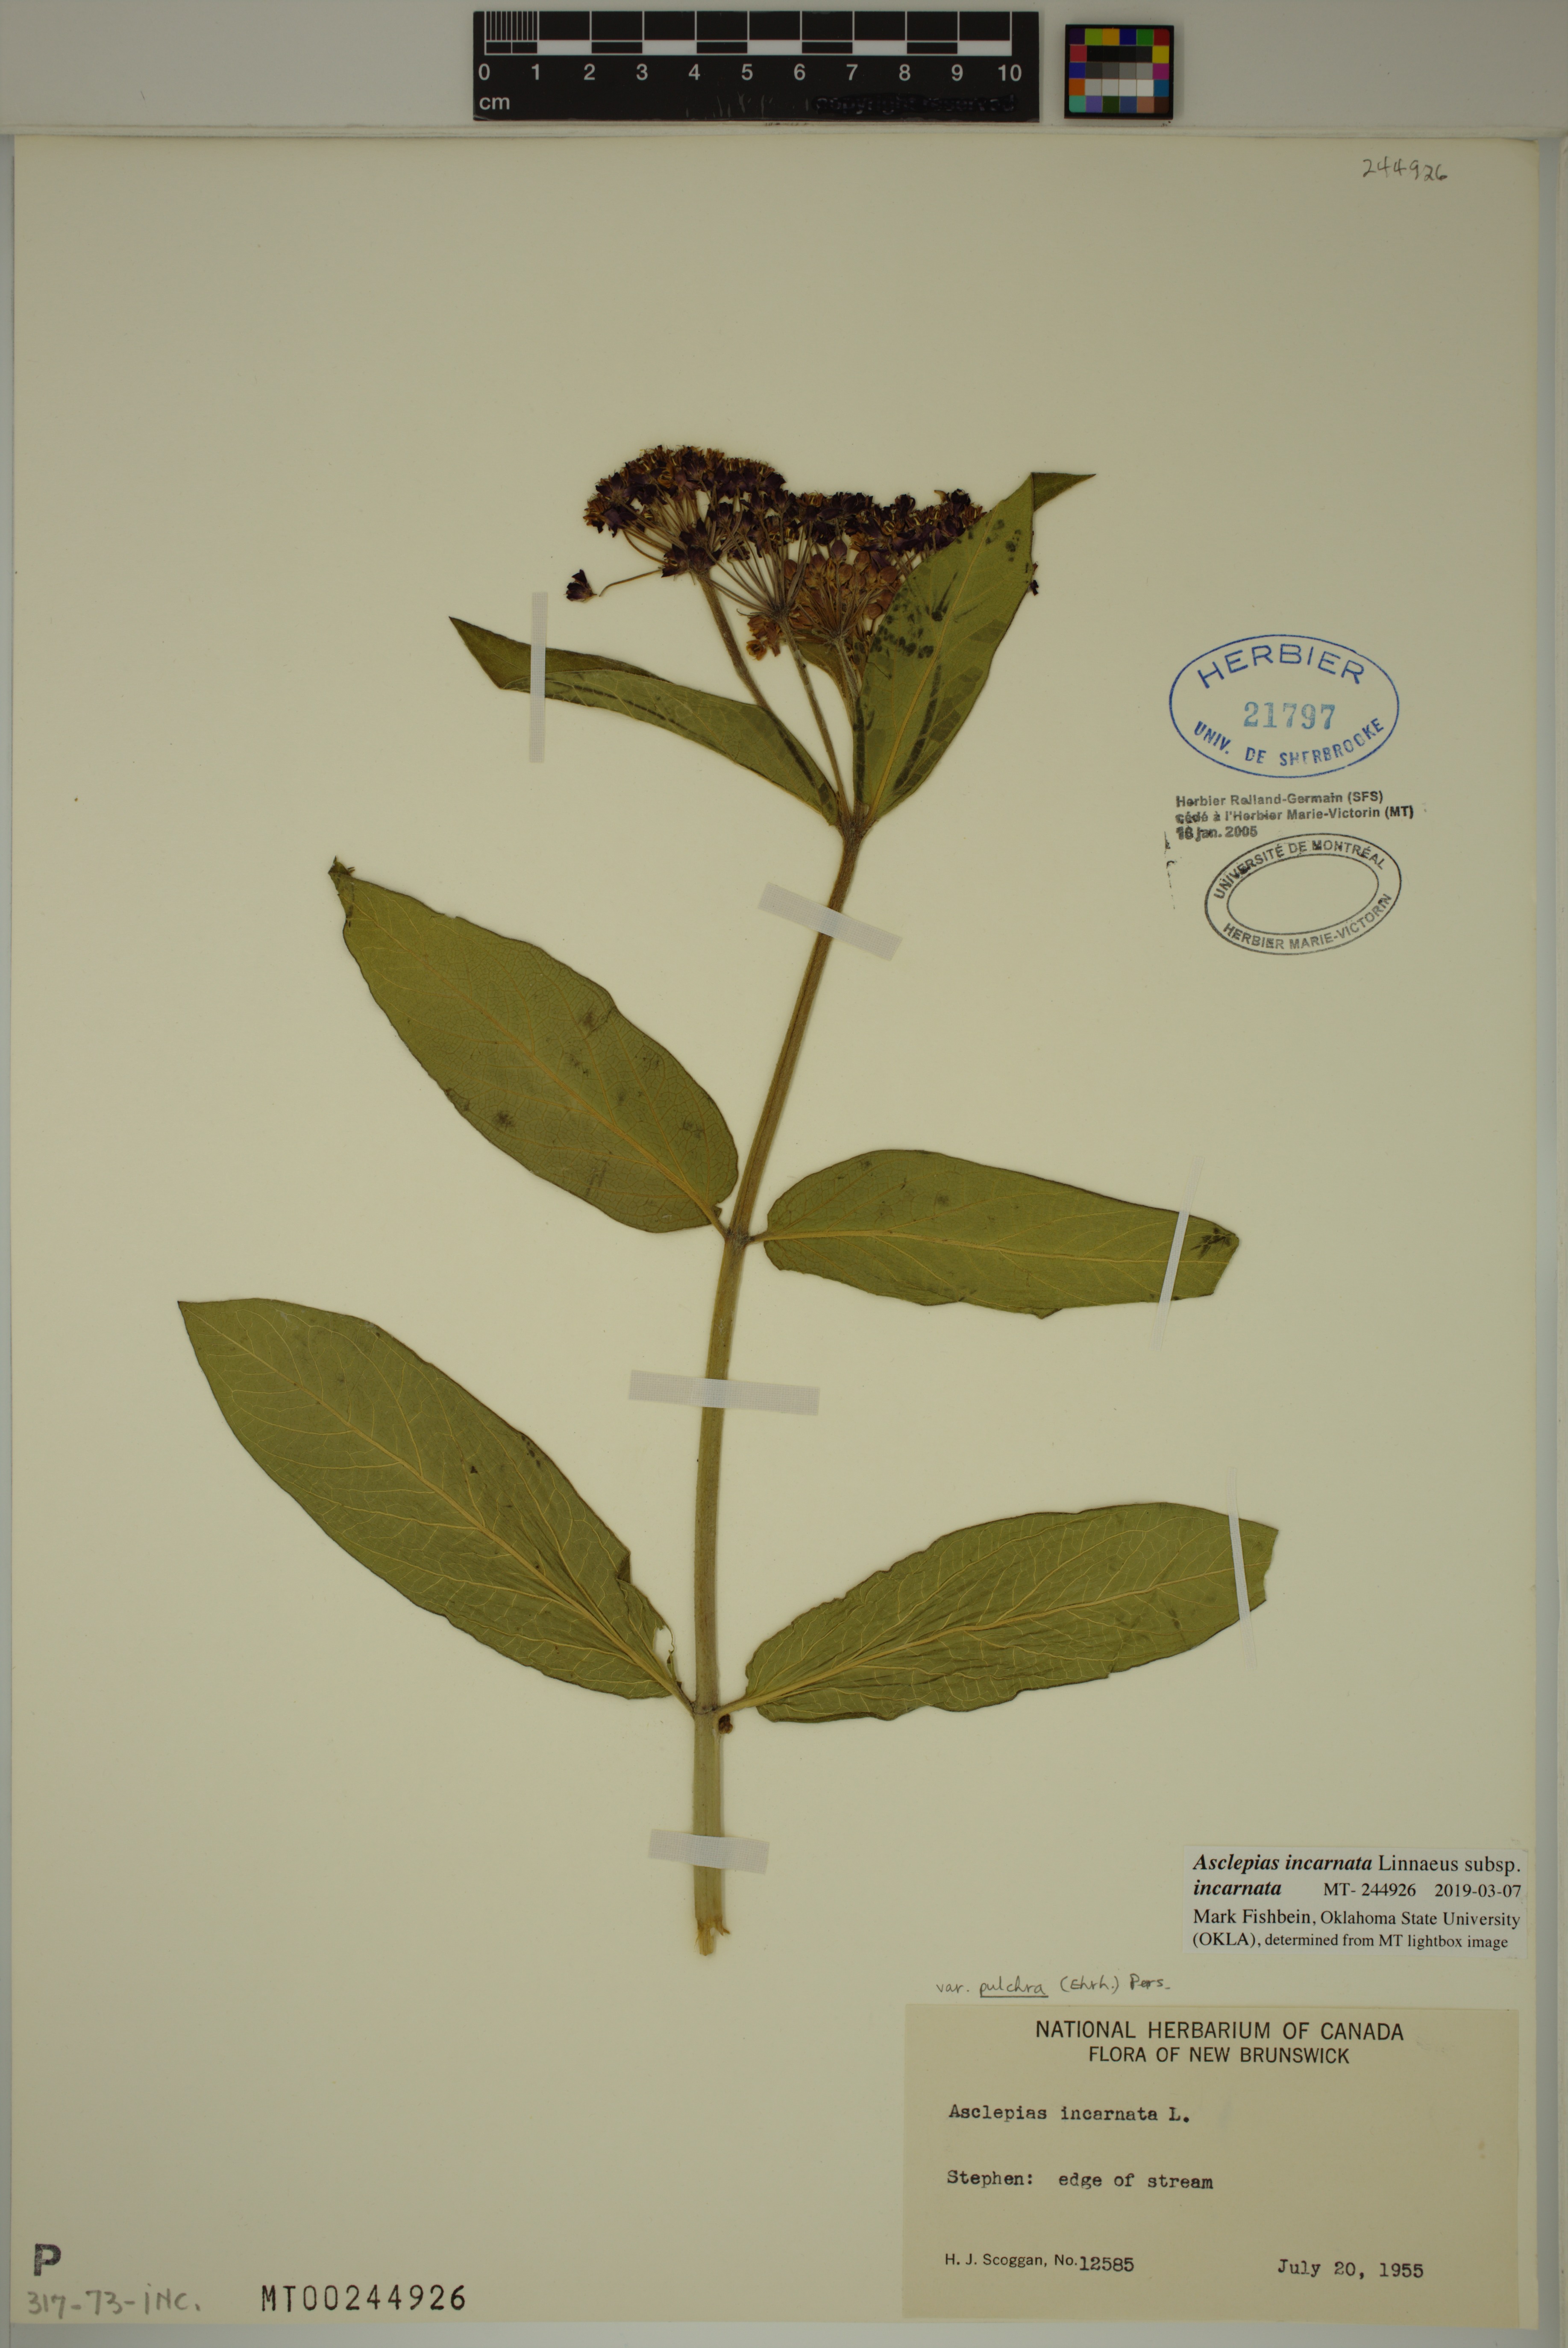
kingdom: Plantae
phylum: Tracheophyta
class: Magnoliopsida
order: Gentianales
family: Apocynaceae
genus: Asclepias
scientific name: Asclepias incarnata
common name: Swamp milkweed
